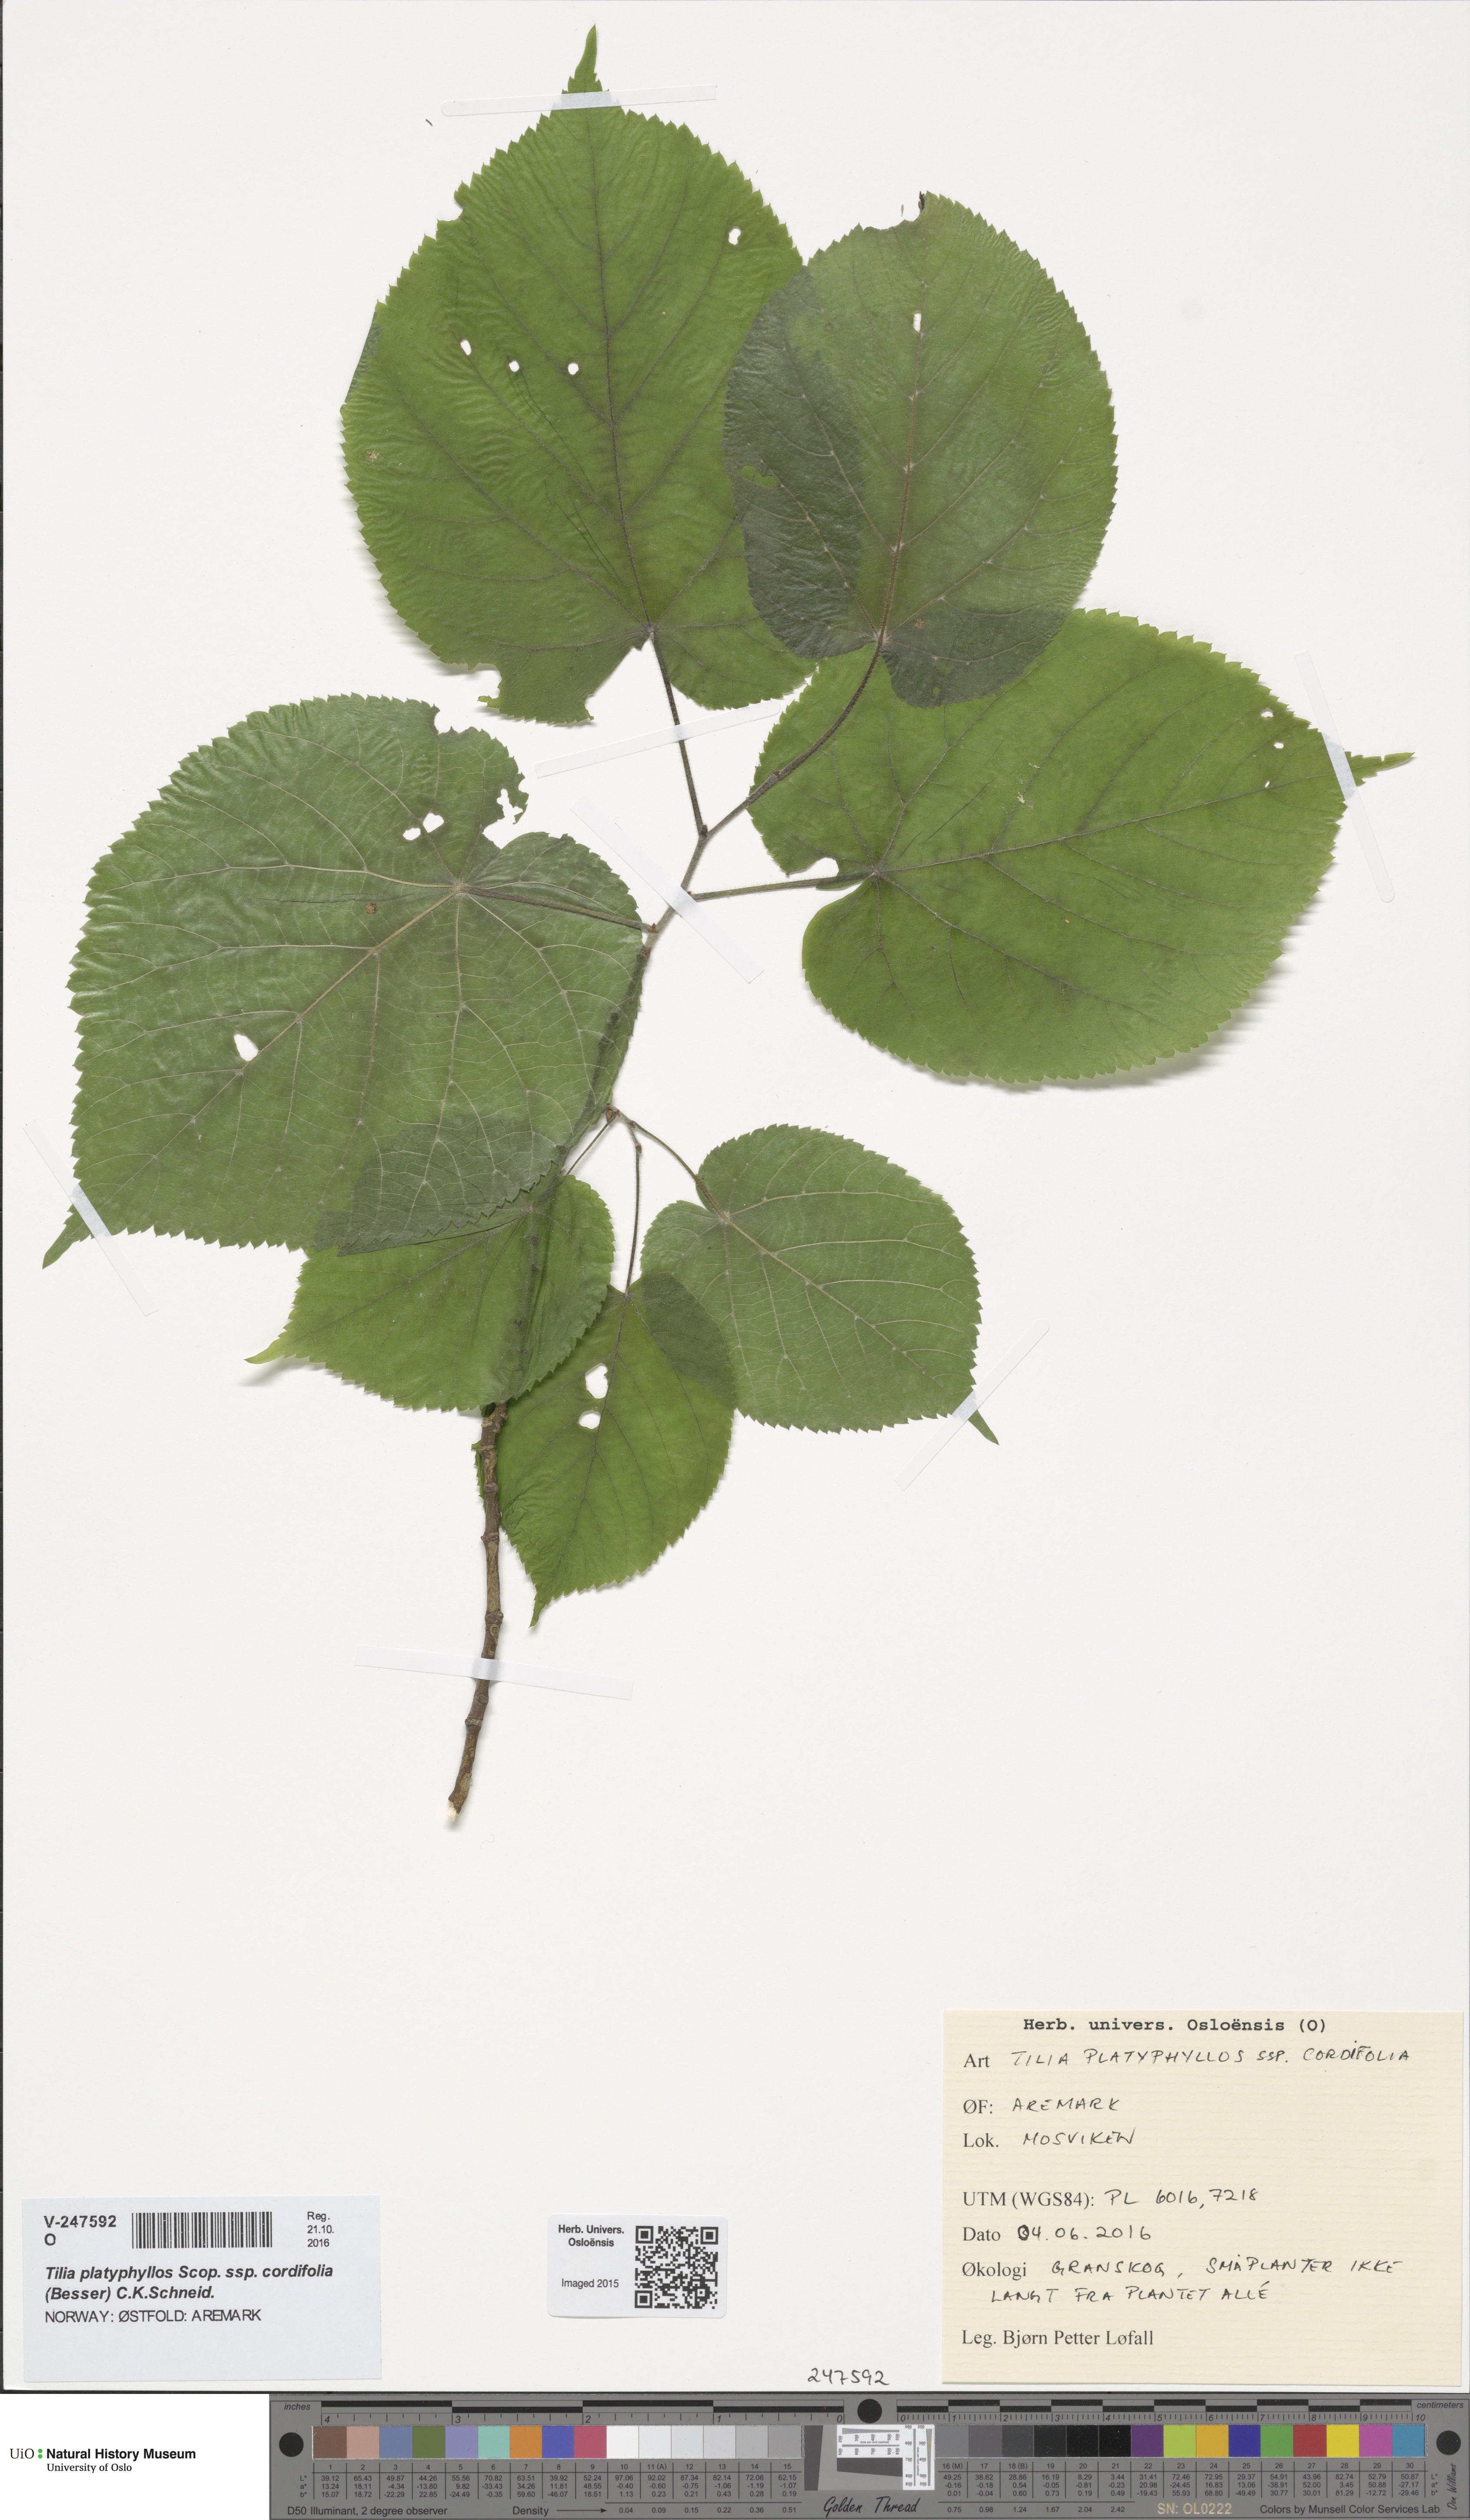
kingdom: Plantae
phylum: Tracheophyta
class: Magnoliopsida
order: Malvales
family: Malvaceae
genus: Tilia
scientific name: Tilia platyphyllos
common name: Large-leaved lime
